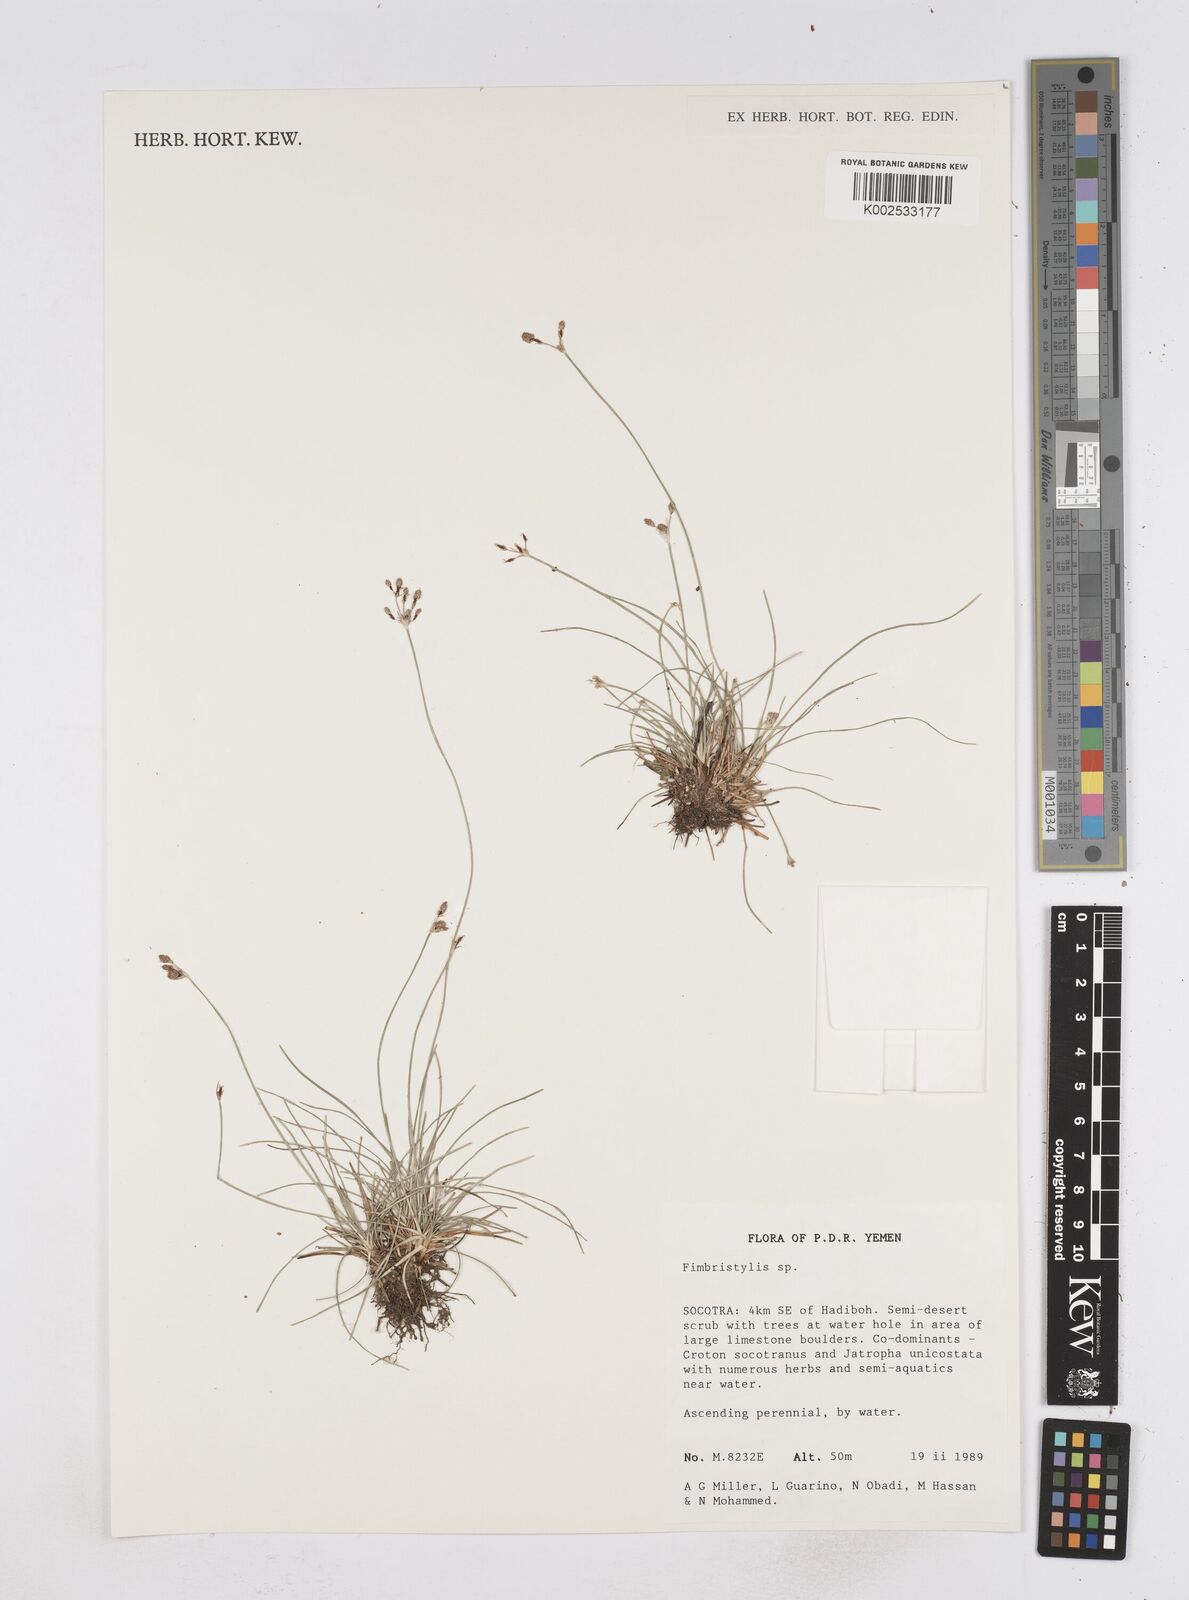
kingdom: Plantae
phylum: Tracheophyta
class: Liliopsida
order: Poales
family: Cyperaceae
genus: Fimbristylis
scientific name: Fimbristylis
